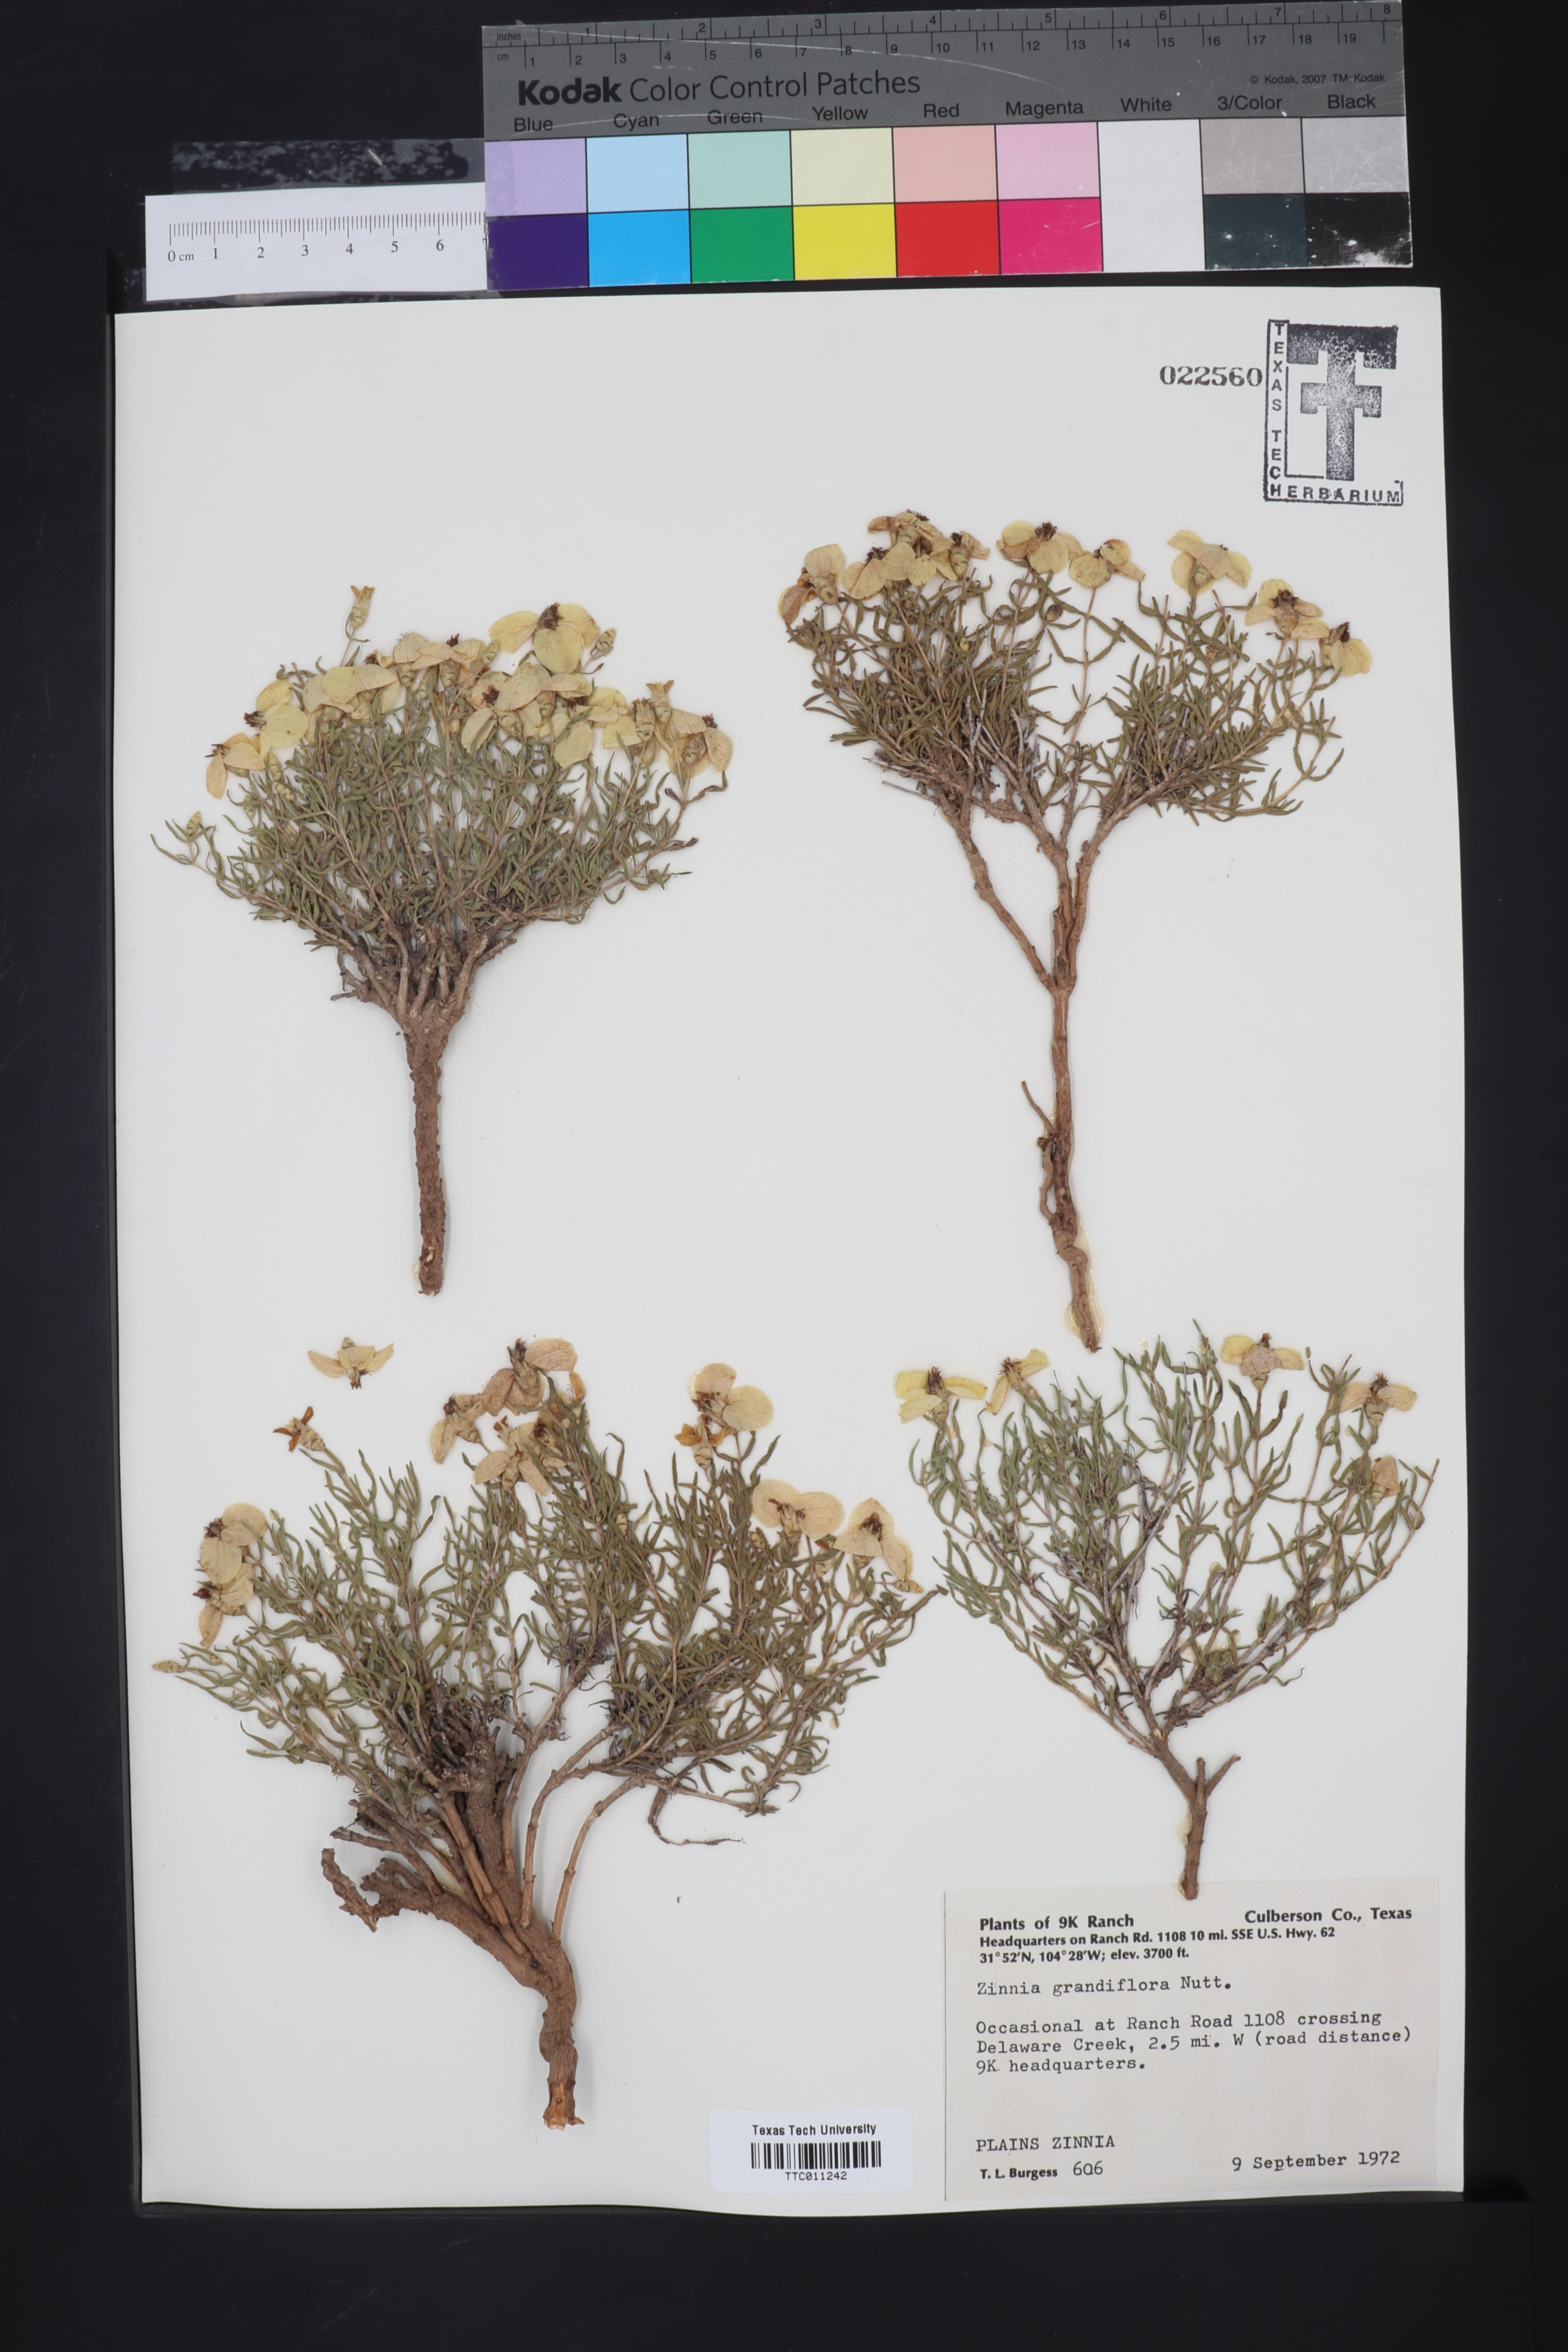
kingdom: Plantae
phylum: Tracheophyta
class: Magnoliopsida
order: Asterales
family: Asteraceae
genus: Zinnia
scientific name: Zinnia grandiflora
